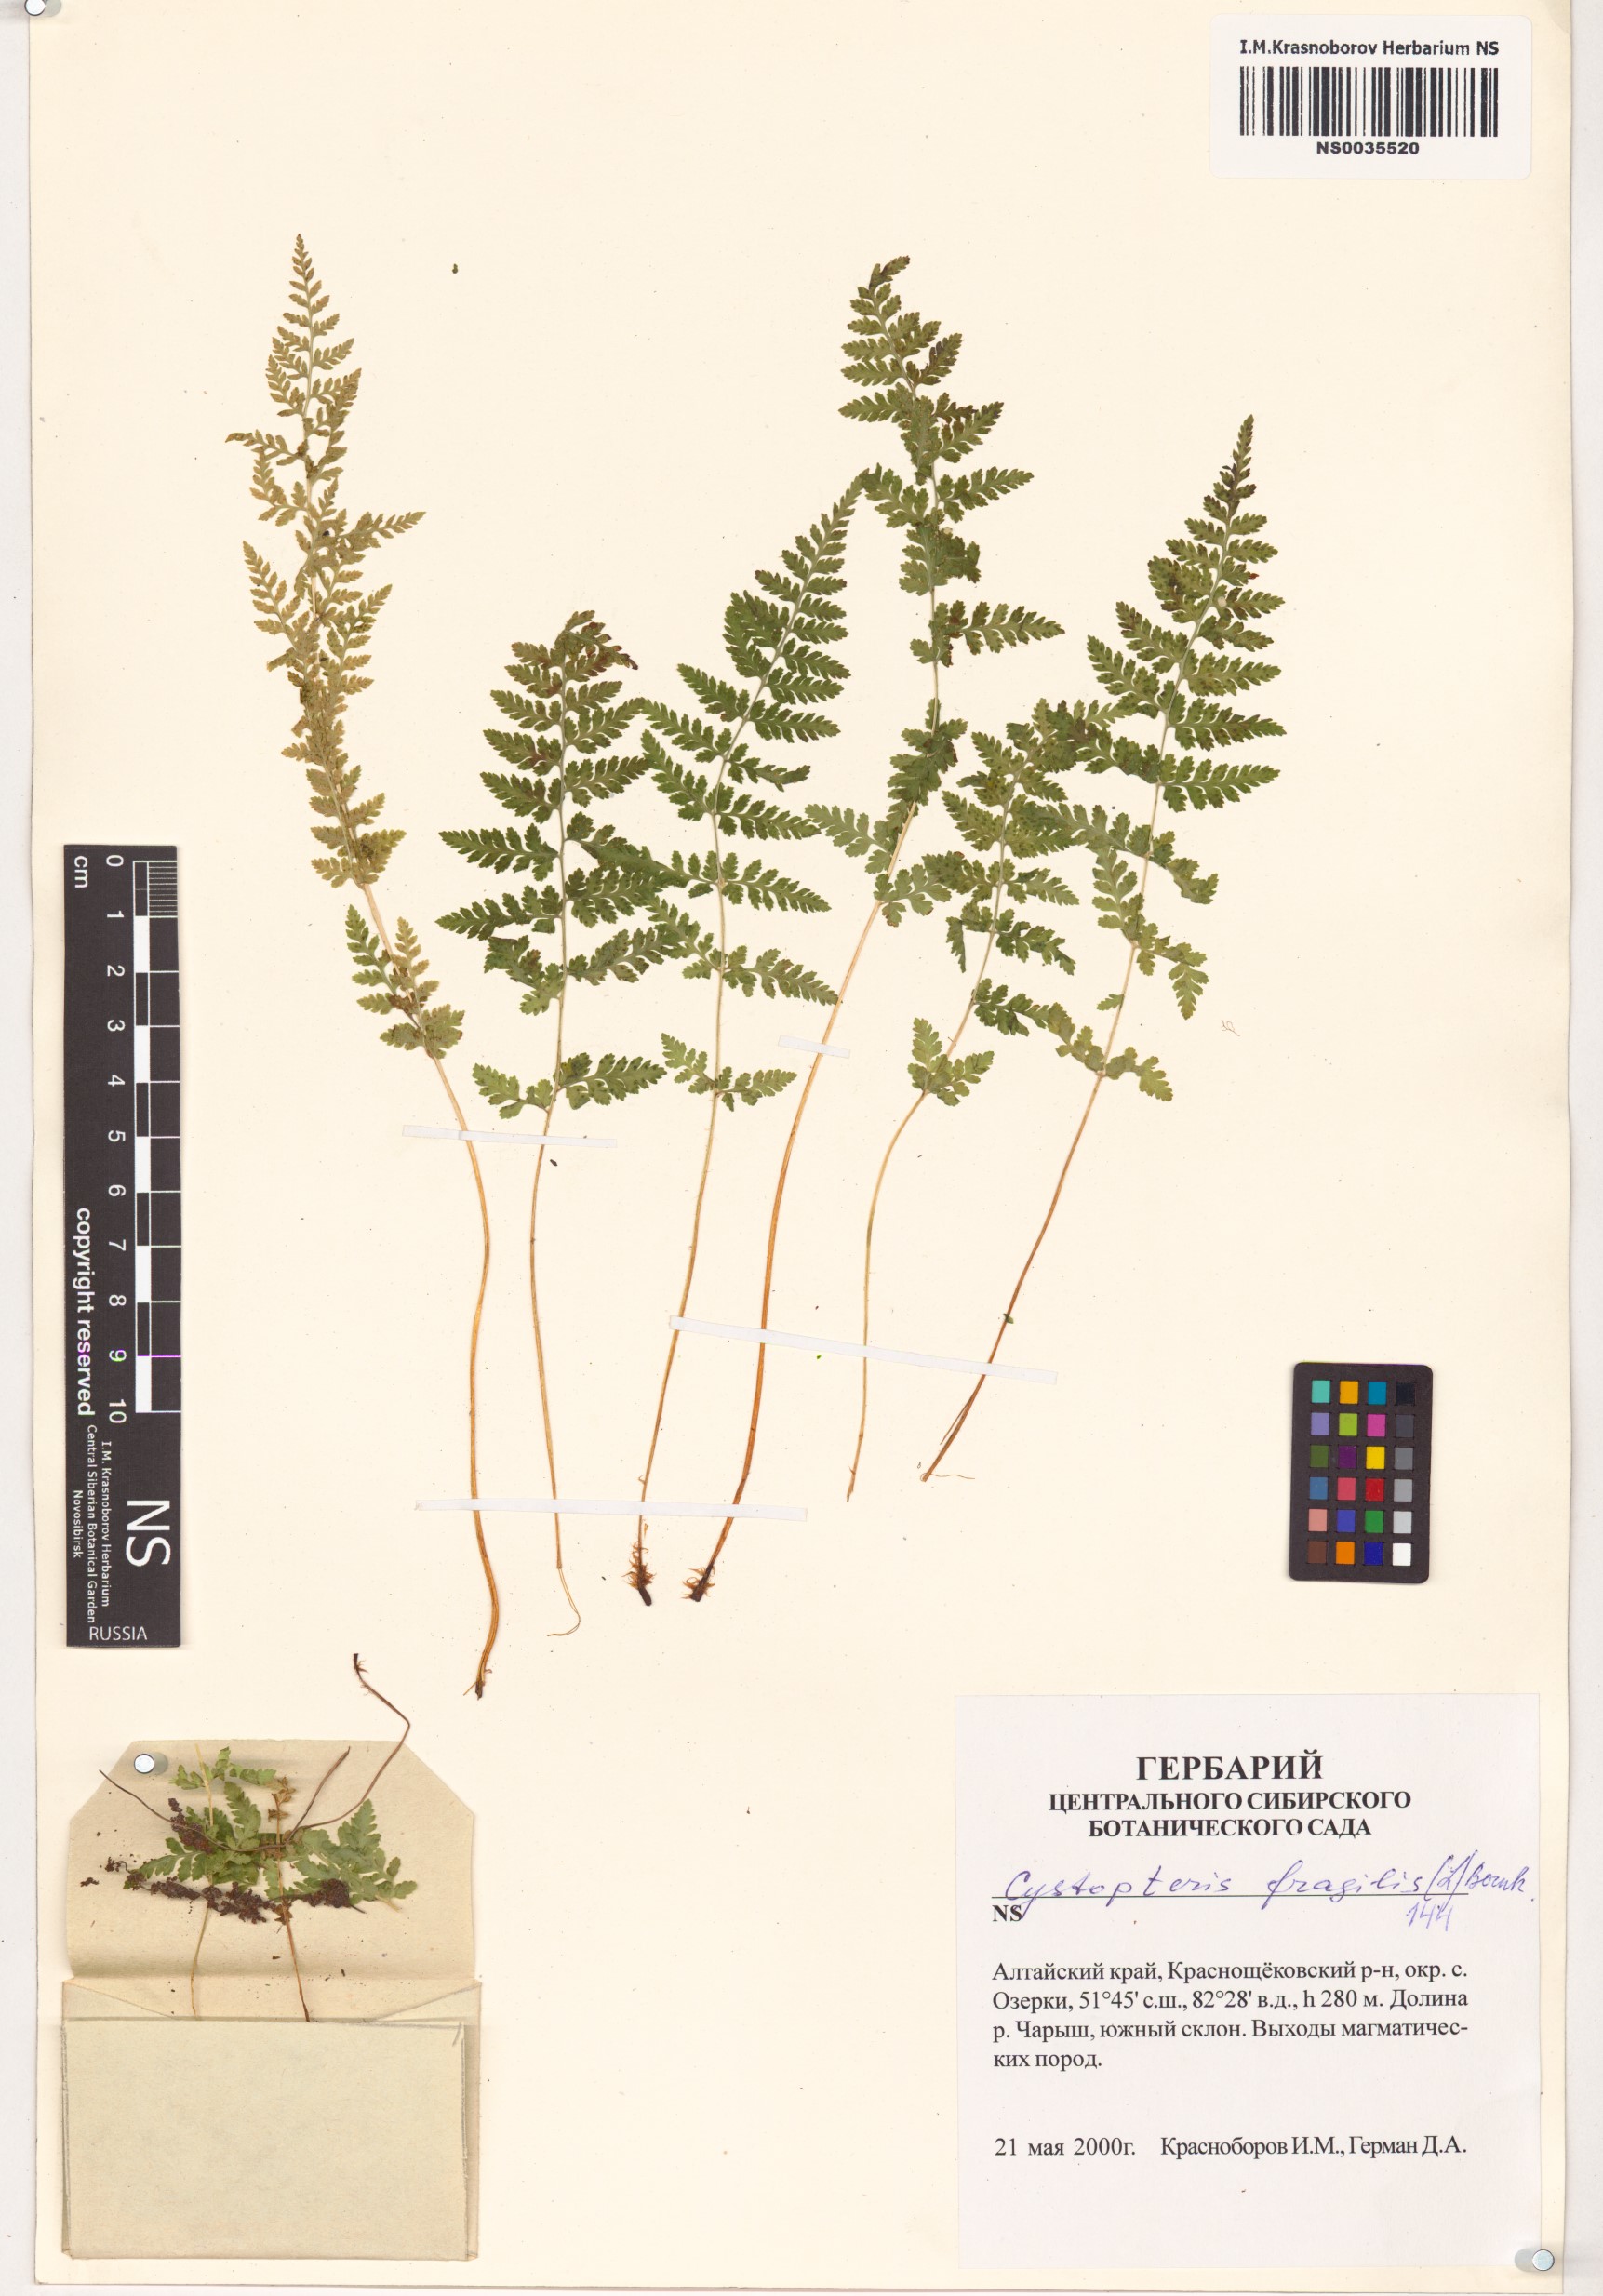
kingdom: Plantae
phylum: Tracheophyta
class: Polypodiopsida
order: Polypodiales
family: Cystopteridaceae
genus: Cystopteris
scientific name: Cystopteris fragilis
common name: Brittle bladder fern
